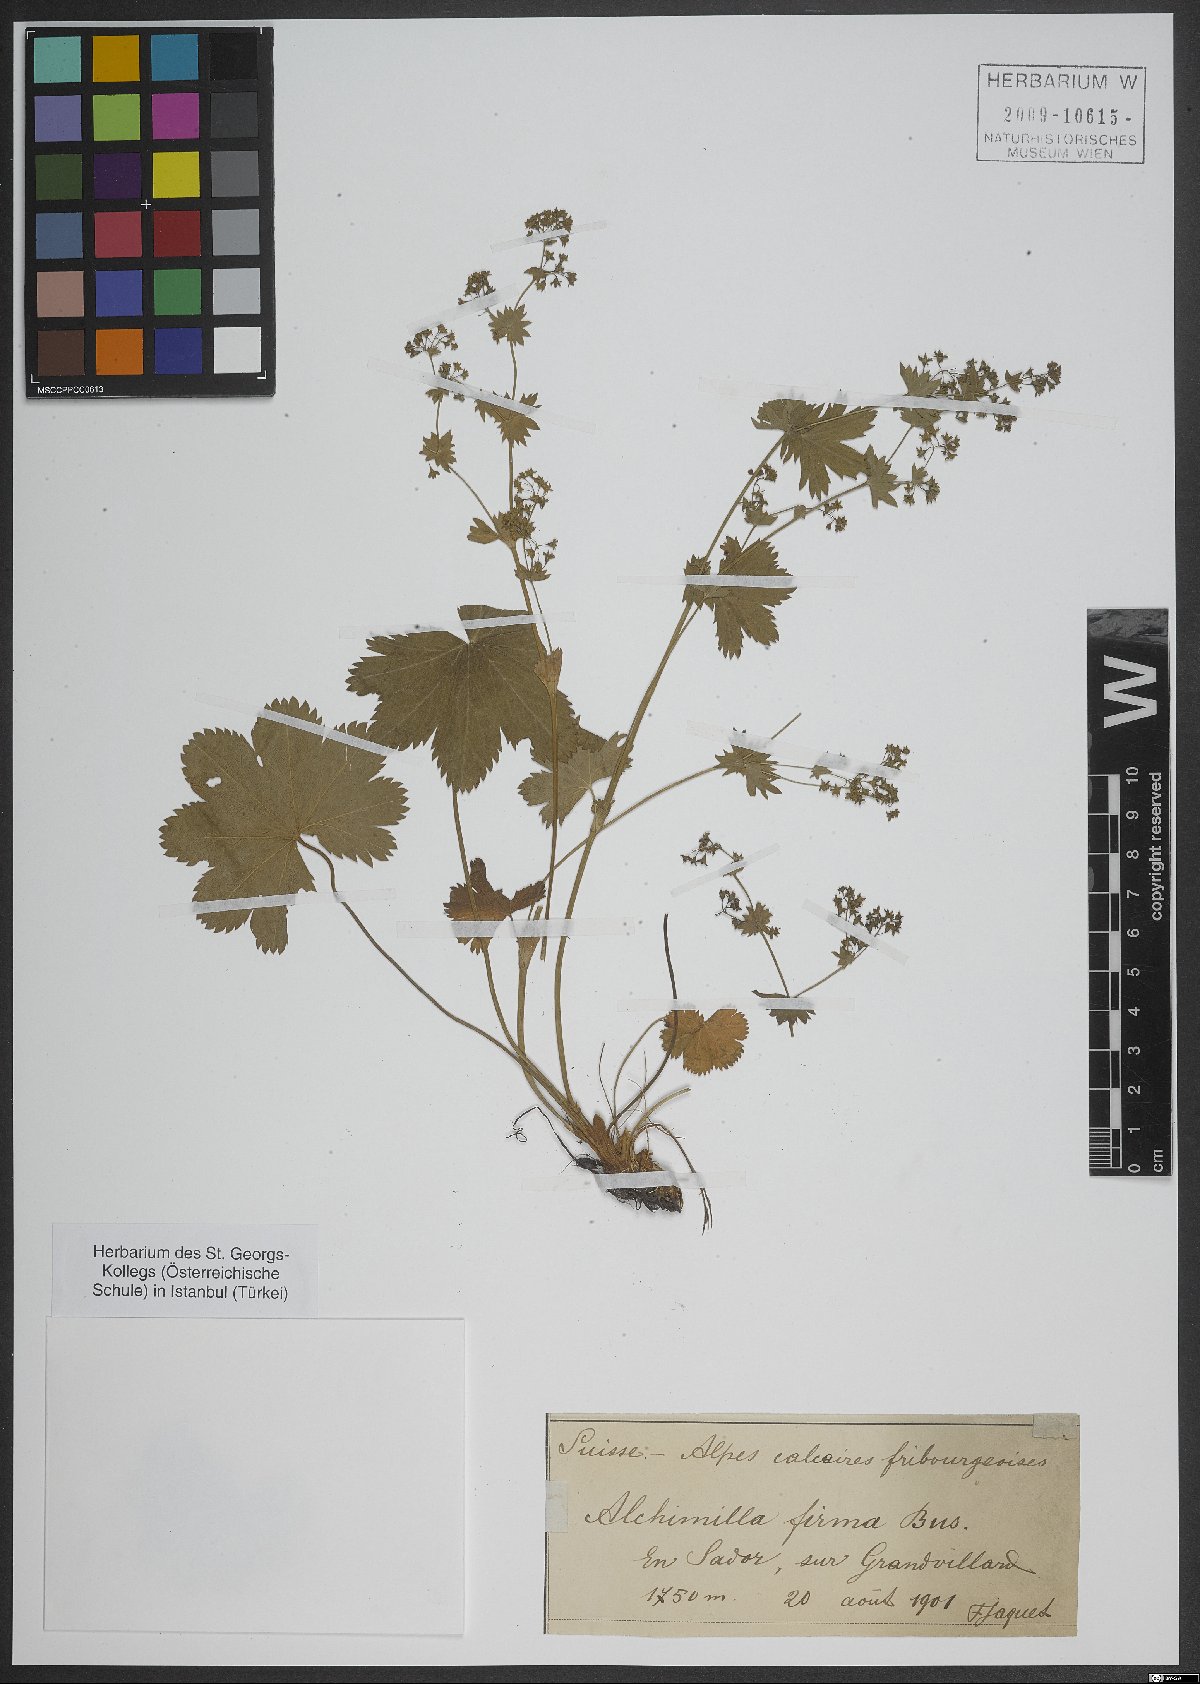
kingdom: Plantae
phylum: Tracheophyta
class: Magnoliopsida
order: Rosales
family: Rosaceae
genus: Alchemilla
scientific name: Alchemilla firma
